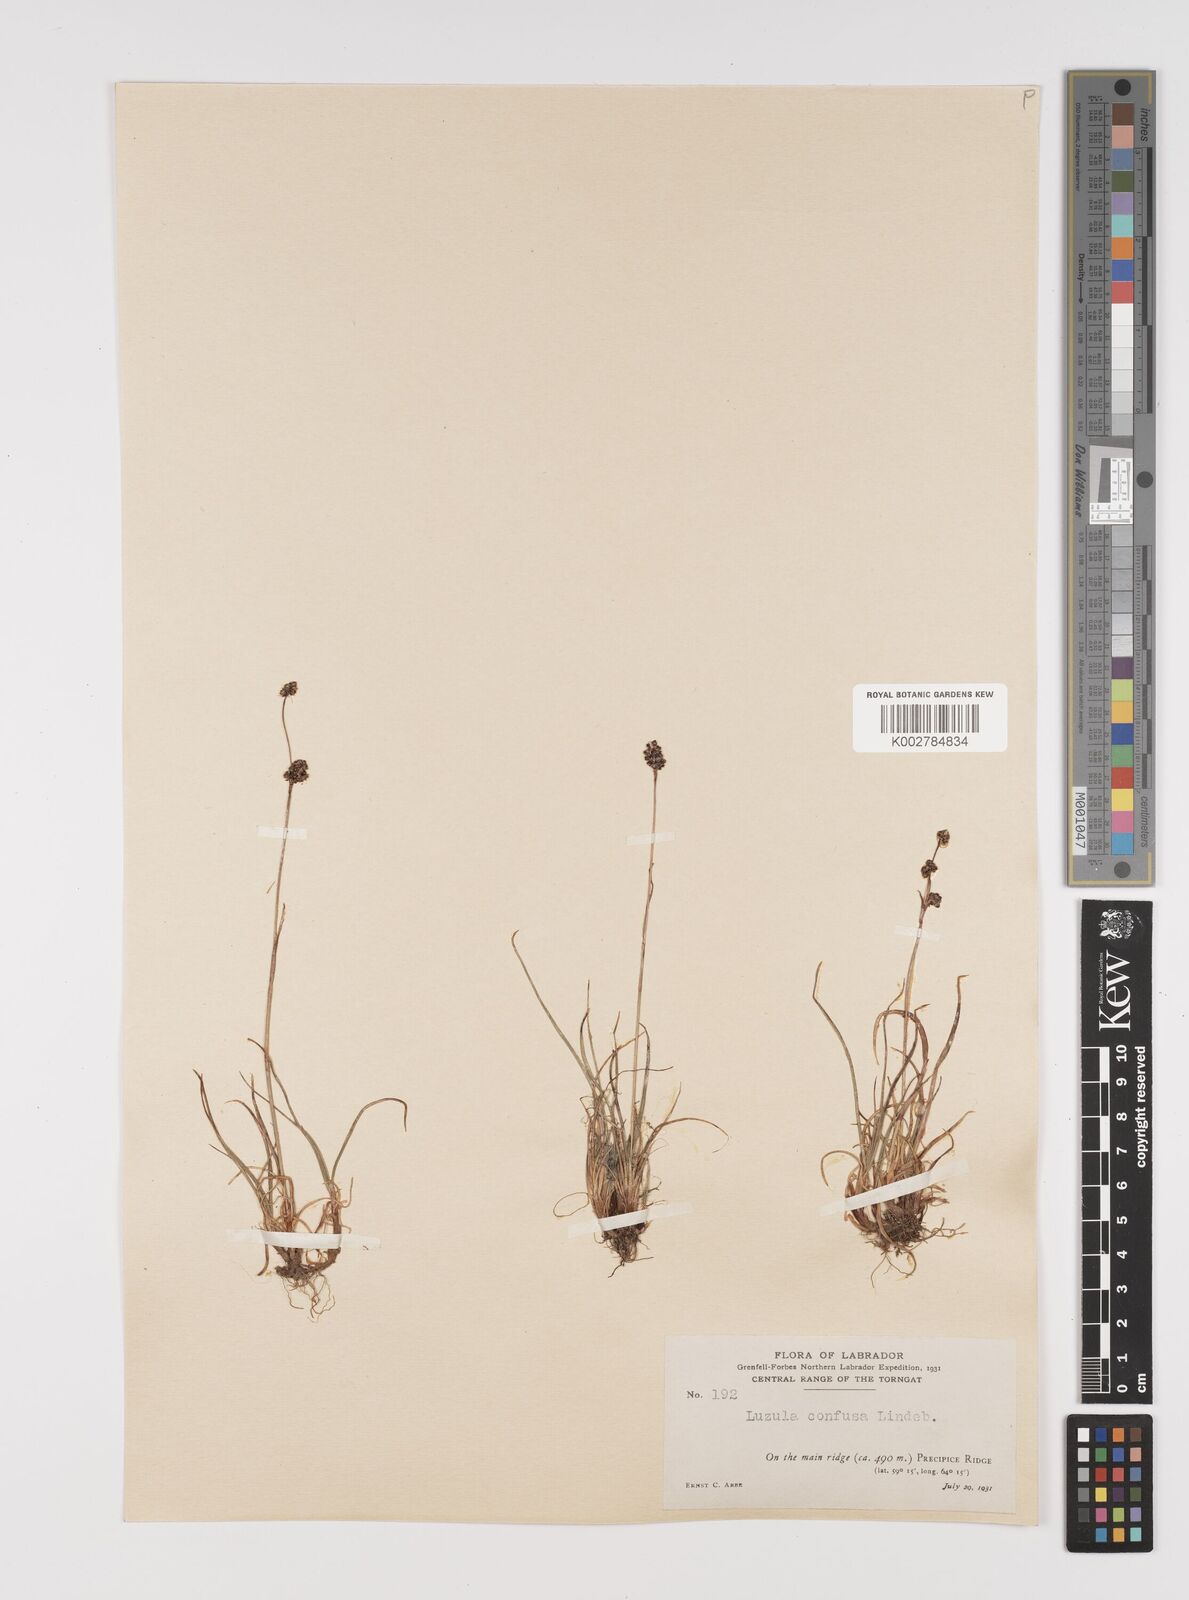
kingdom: Plantae
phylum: Tracheophyta
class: Liliopsida
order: Poales
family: Juncaceae
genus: Luzula
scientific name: Luzula confusa
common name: Northern wood rush
